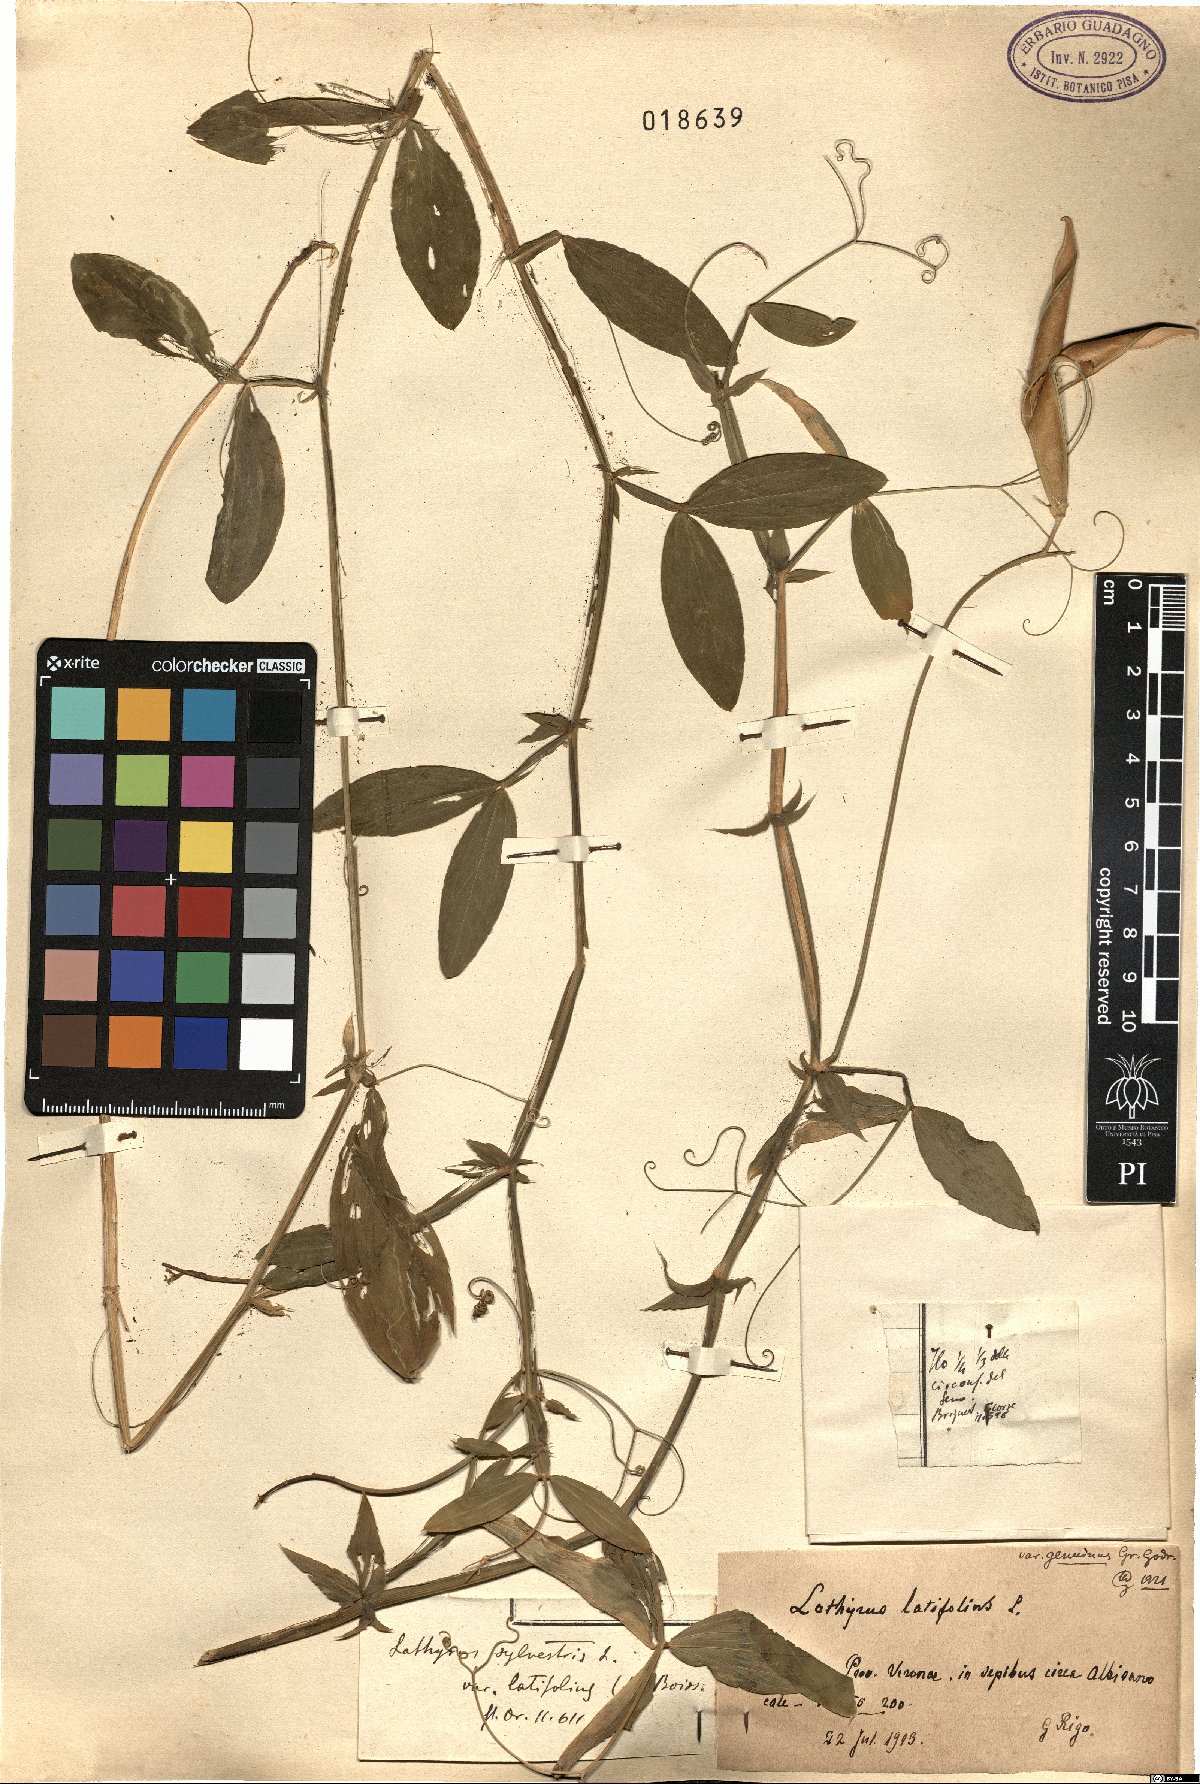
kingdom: Plantae
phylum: Tracheophyta
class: Magnoliopsida
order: Fabales
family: Fabaceae
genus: Lathyrus
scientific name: Lathyrus latifolius
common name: Perennial pea
